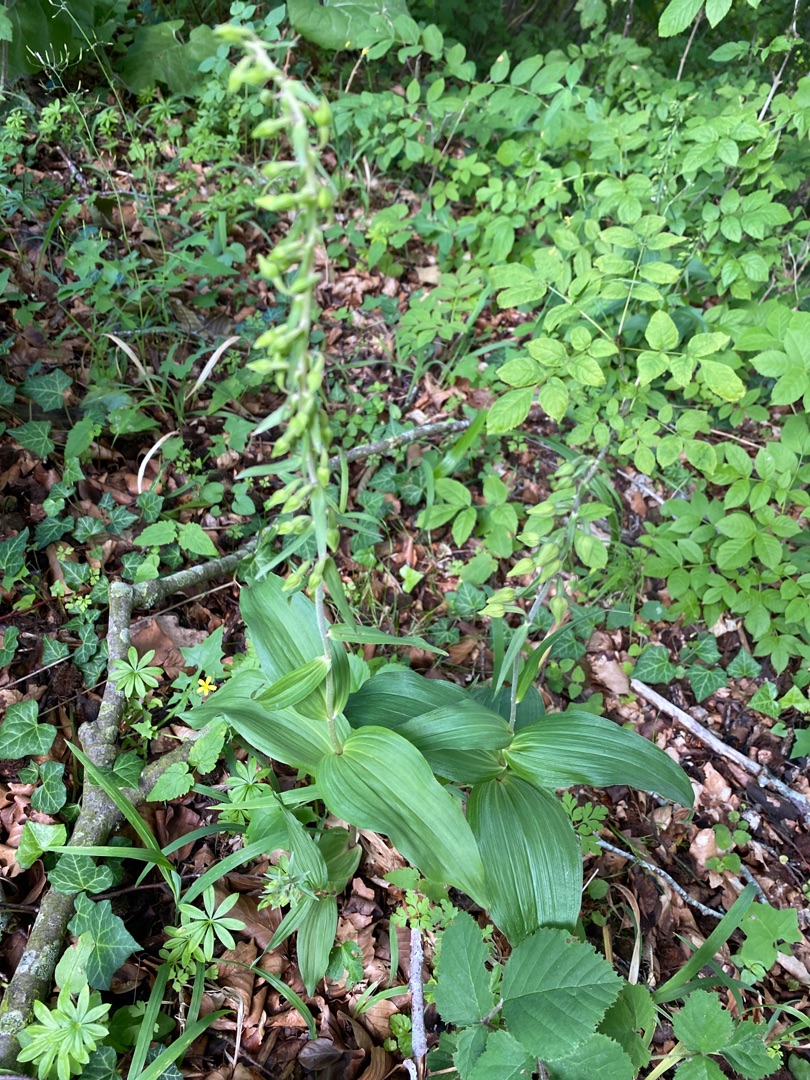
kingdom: Plantae
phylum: Tracheophyta
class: Liliopsida
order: Asparagales
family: Orchidaceae
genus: Epipactis
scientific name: Epipactis helleborine
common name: Skov-hullæbe
